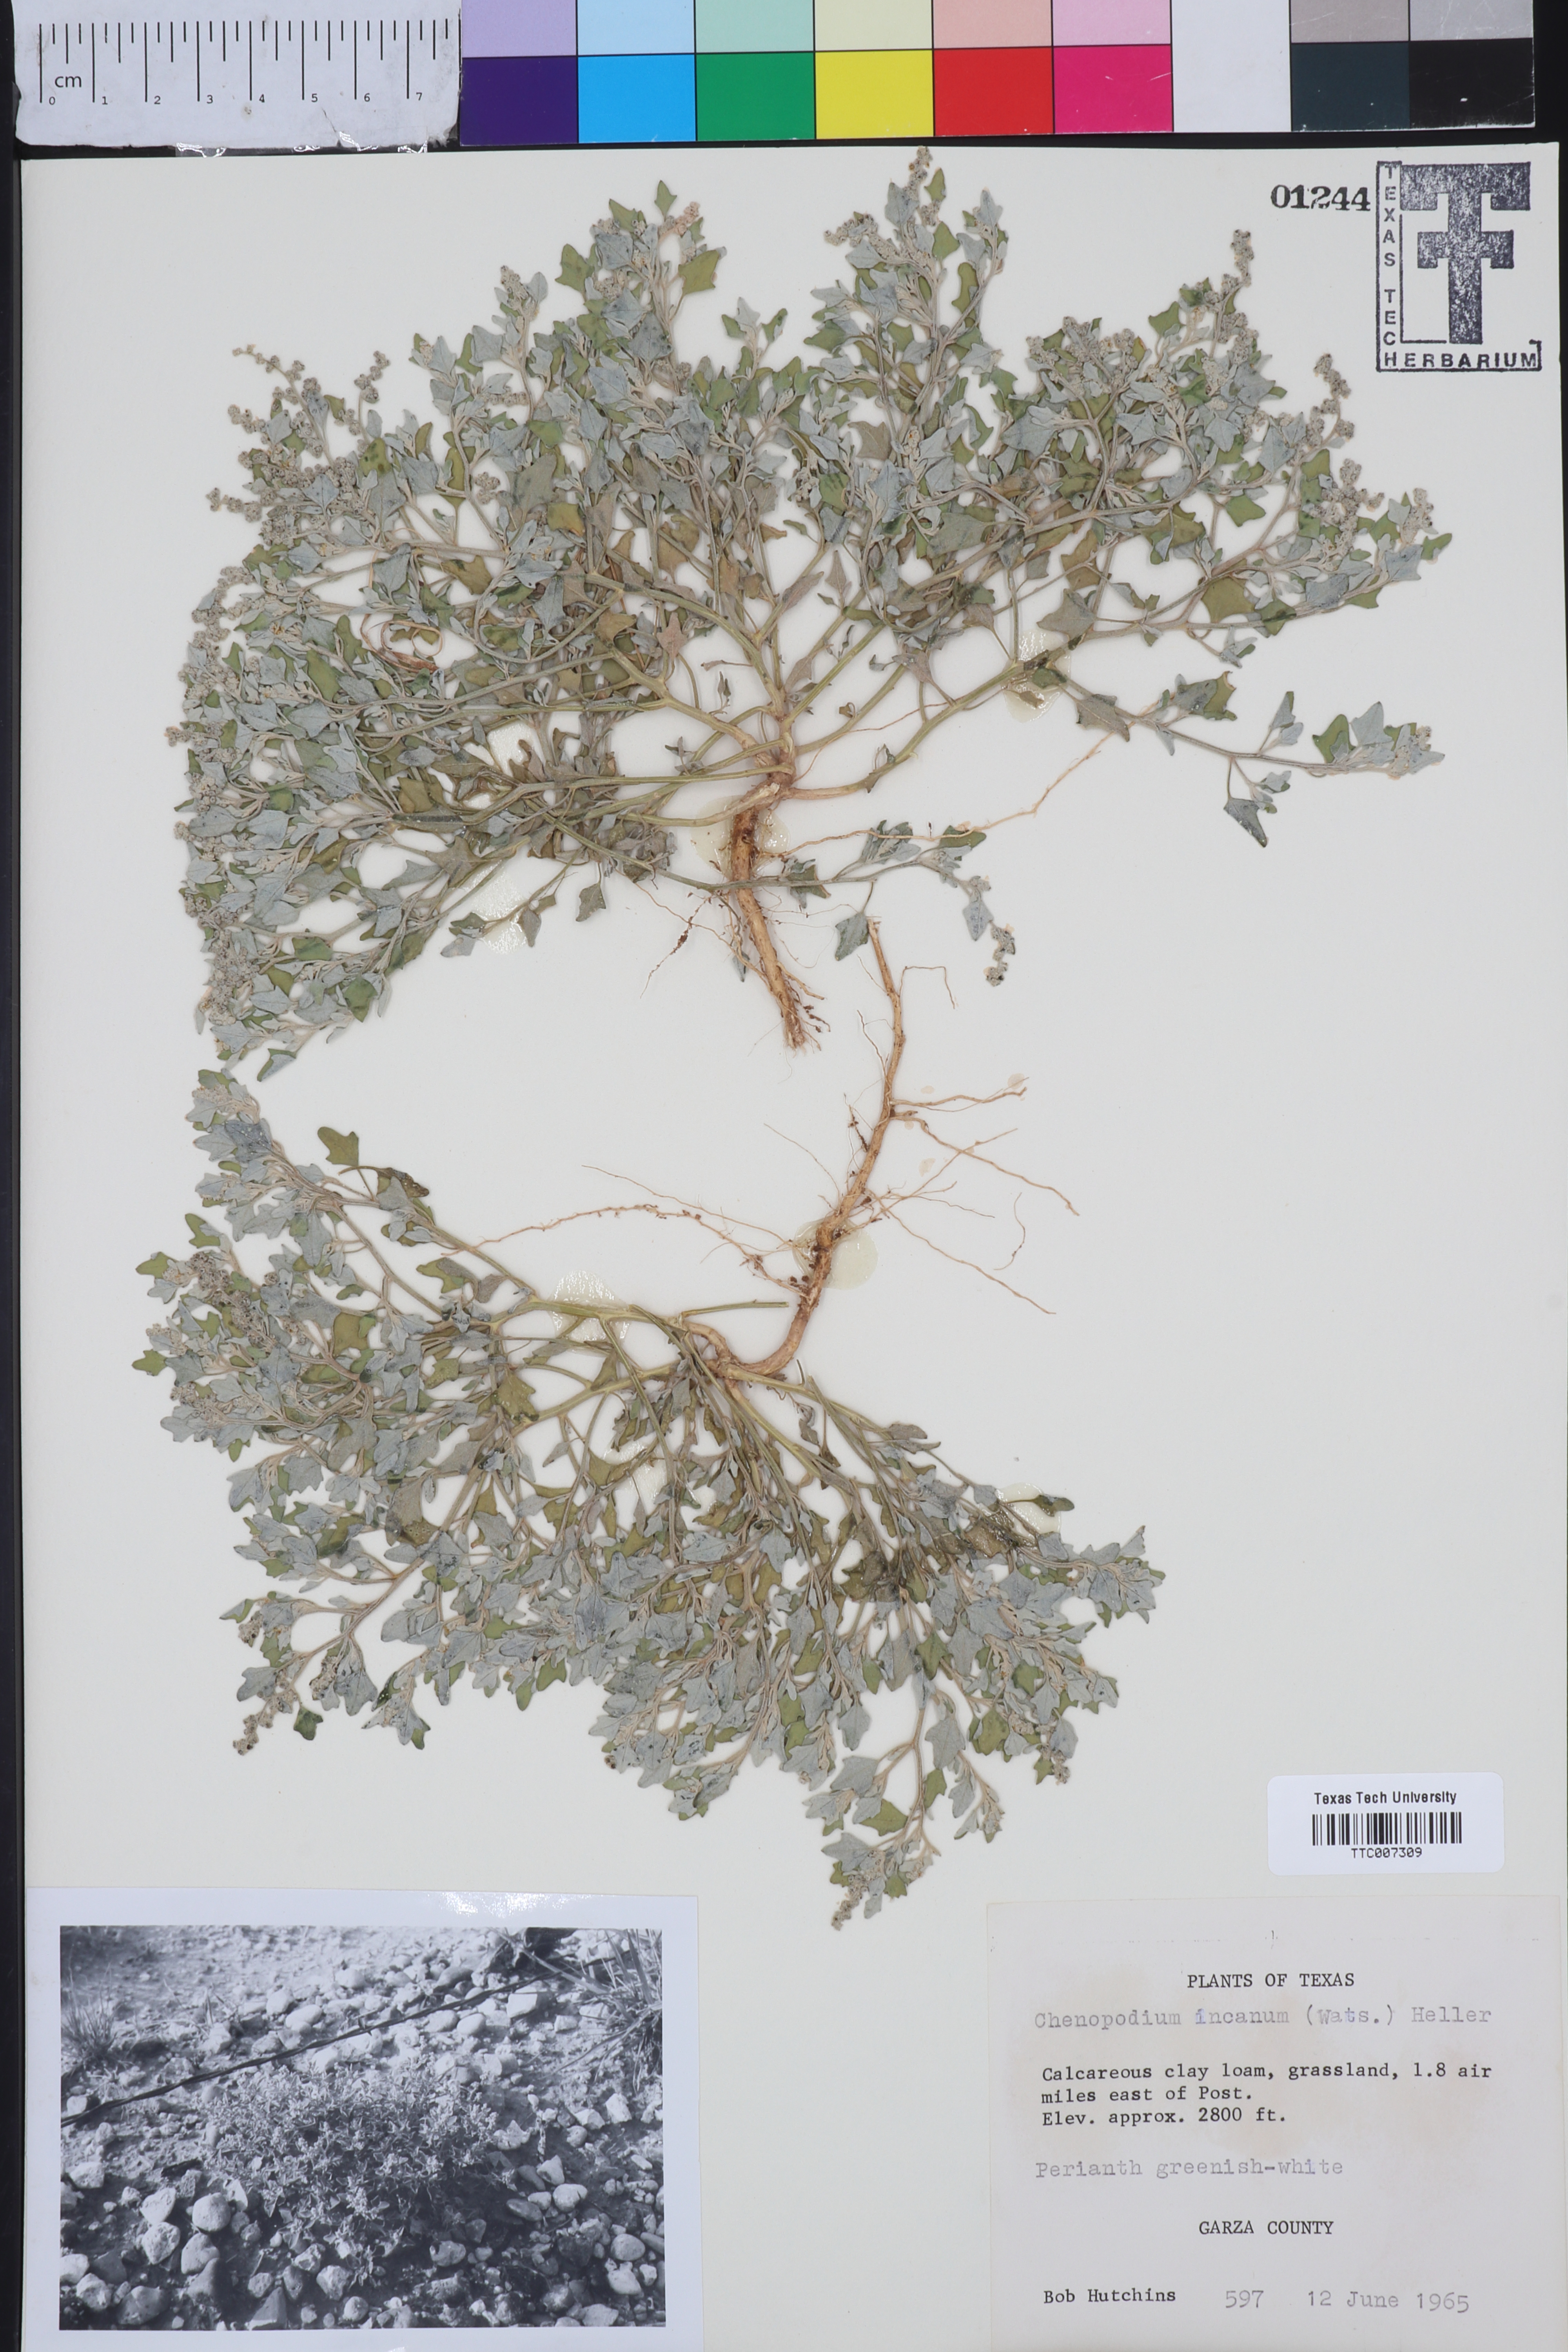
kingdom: Plantae
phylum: Tracheophyta
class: Magnoliopsida
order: Caryophyllales
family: Amaranthaceae
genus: Chenopodium
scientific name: Chenopodium incanum
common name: Hoary goosefoot
